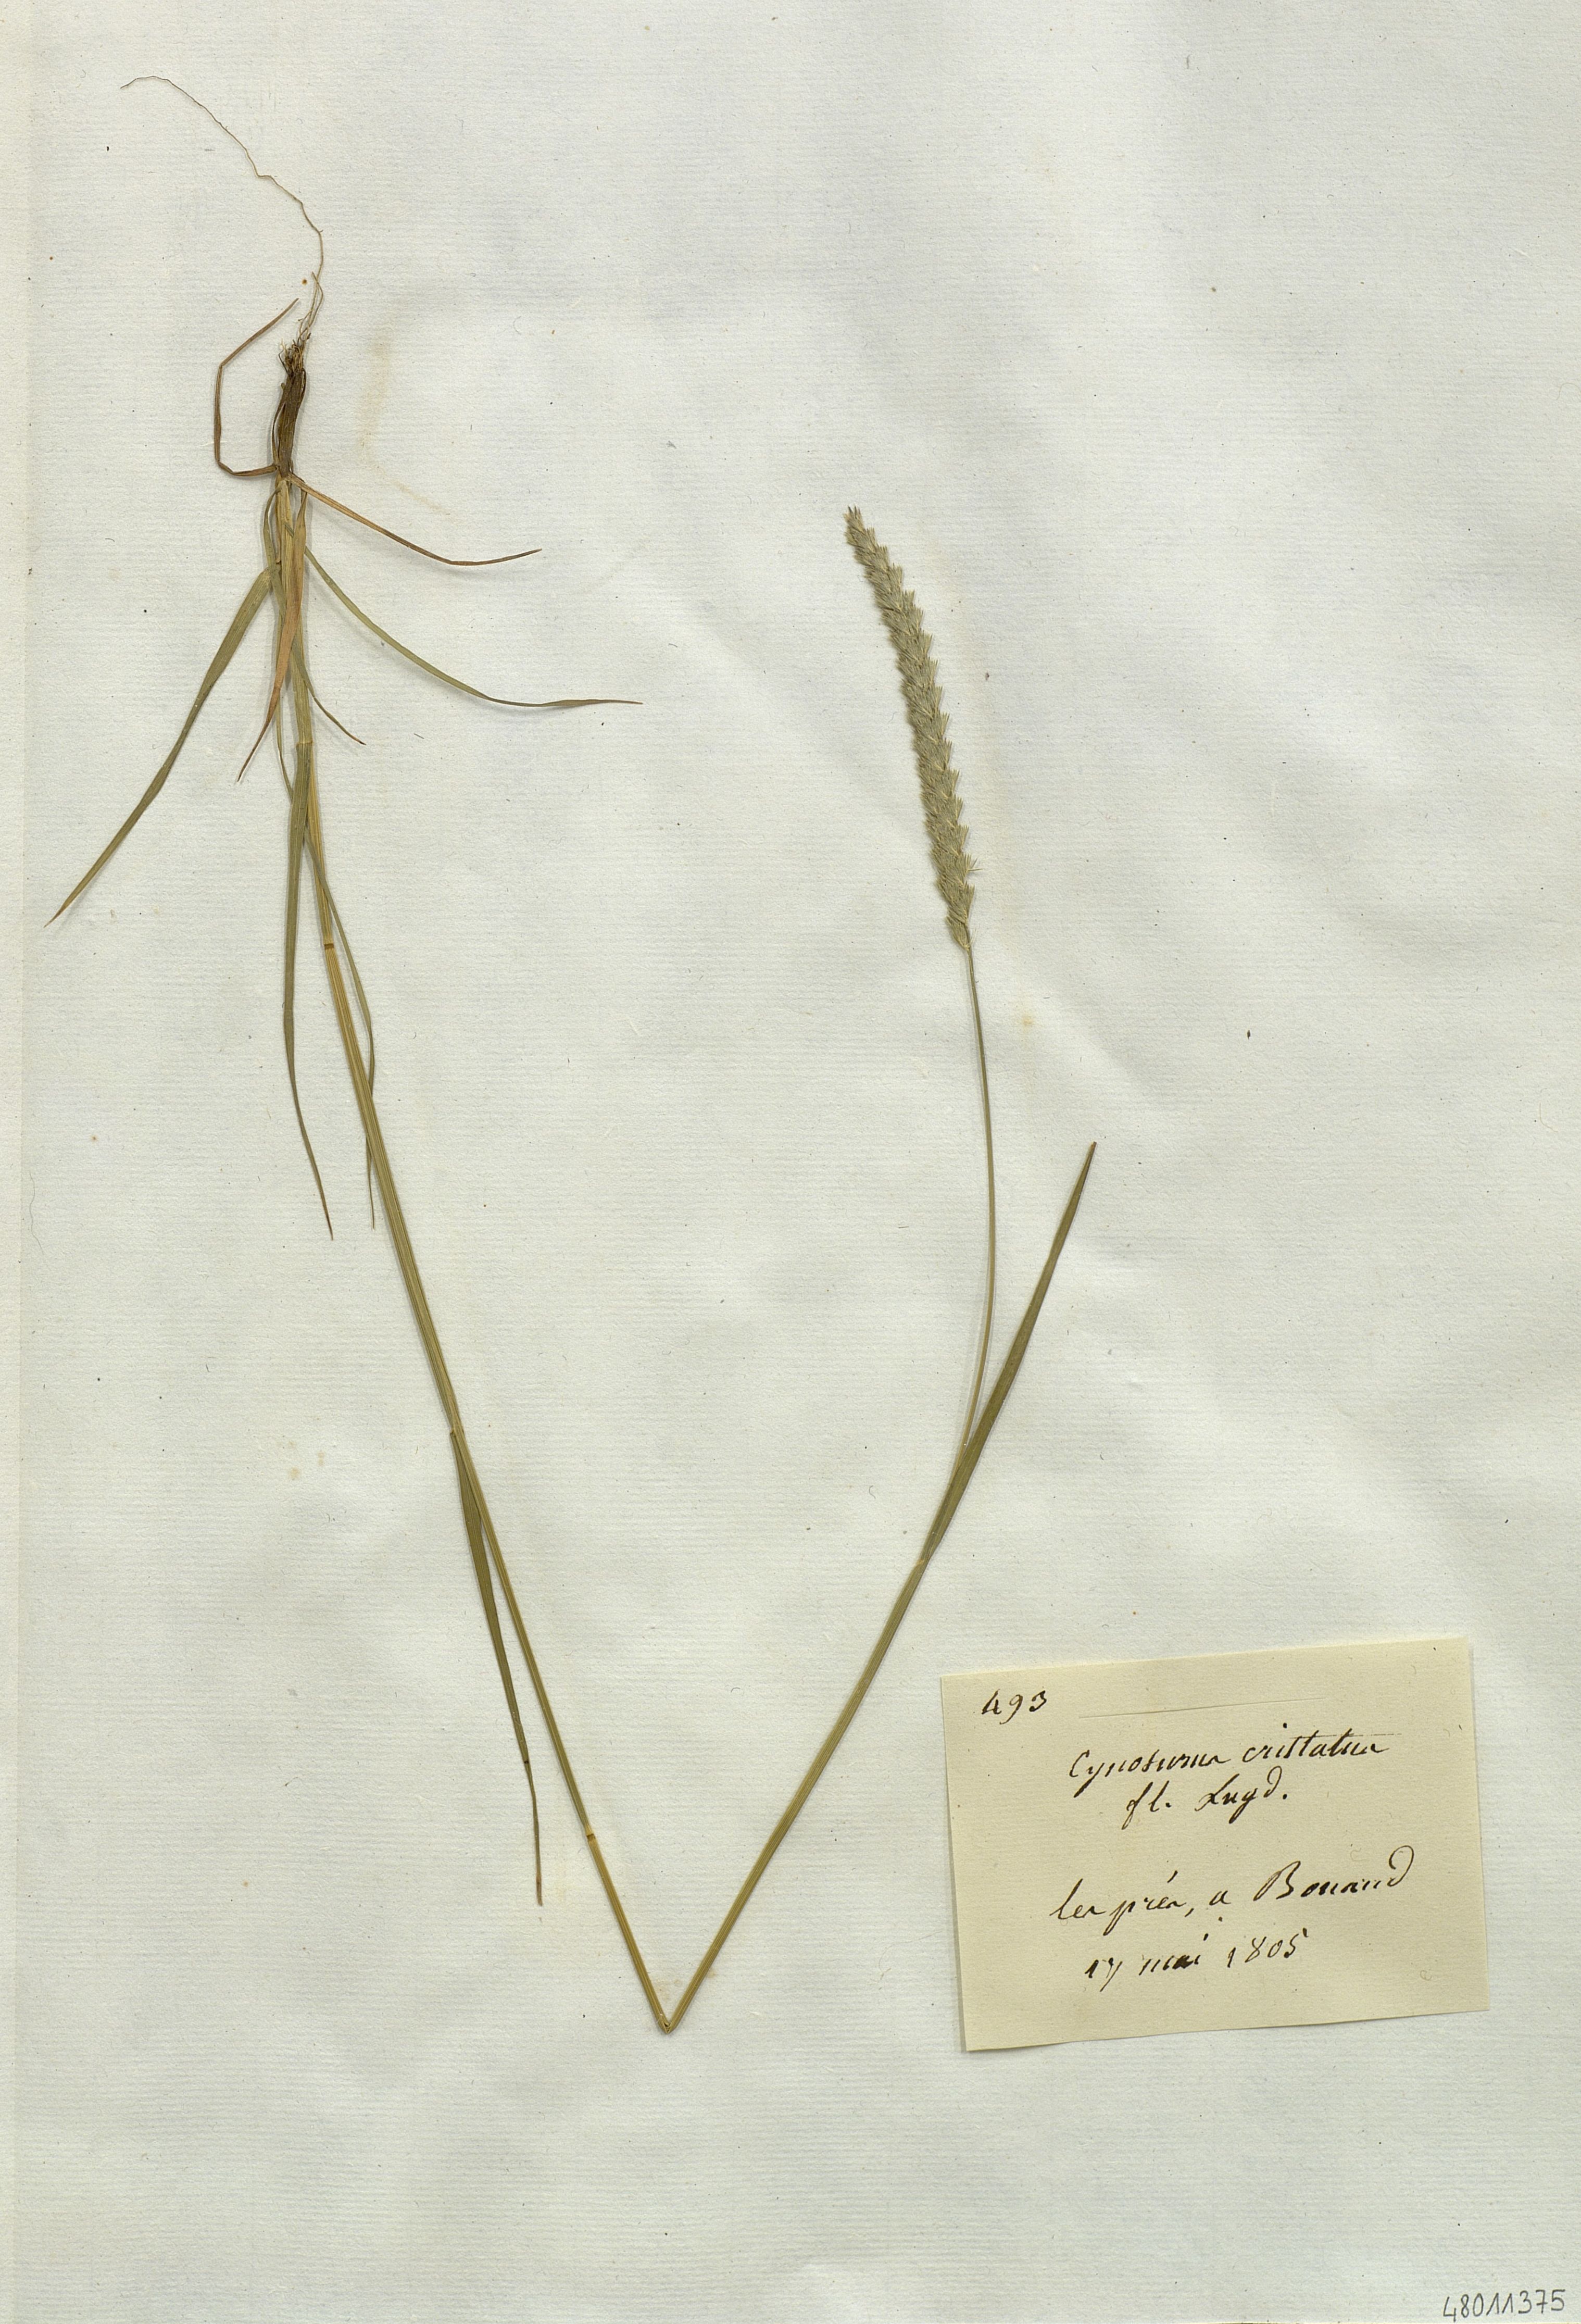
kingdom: Plantae
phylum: Tracheophyta
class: Liliopsida
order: Poales
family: Poaceae
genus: Cynosurus
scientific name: Cynosurus cristatus
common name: Crested dog's-tail
